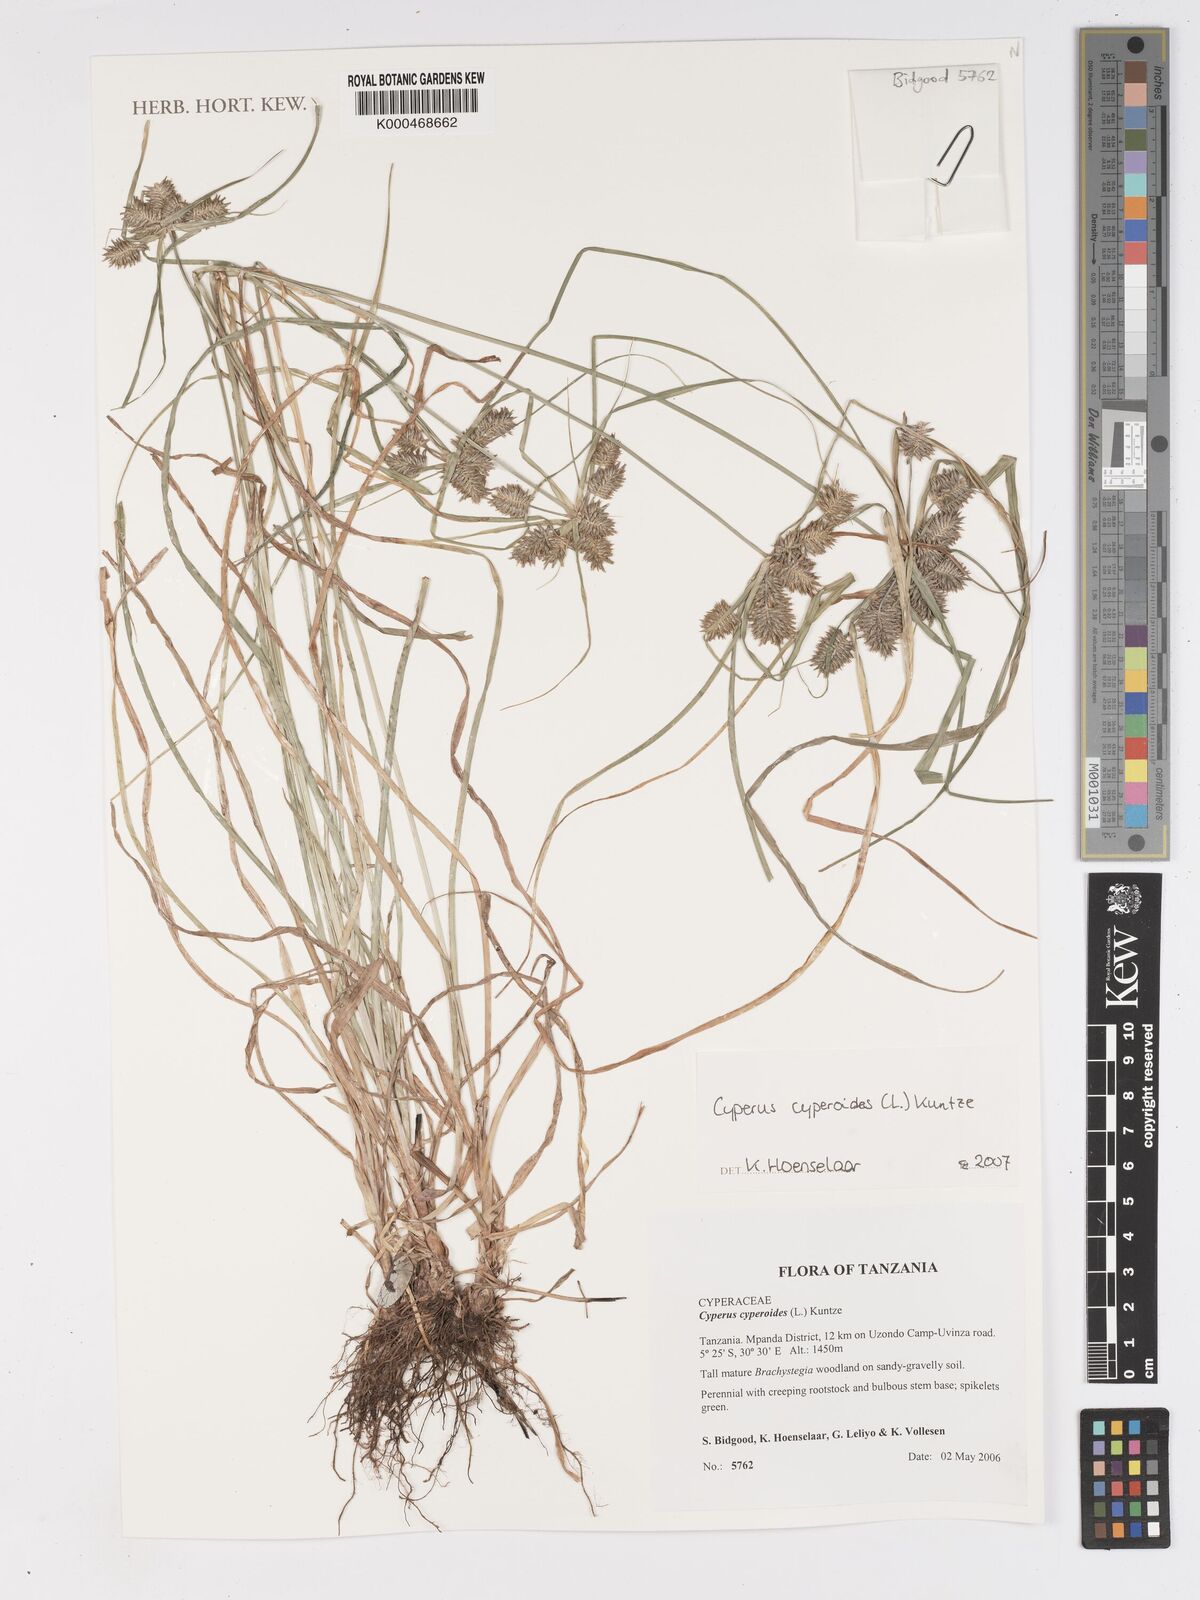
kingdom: Plantae
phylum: Tracheophyta
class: Liliopsida
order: Poales
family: Cyperaceae
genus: Cyperus
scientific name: Cyperus cyperoides
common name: Pacific island flat sedge
